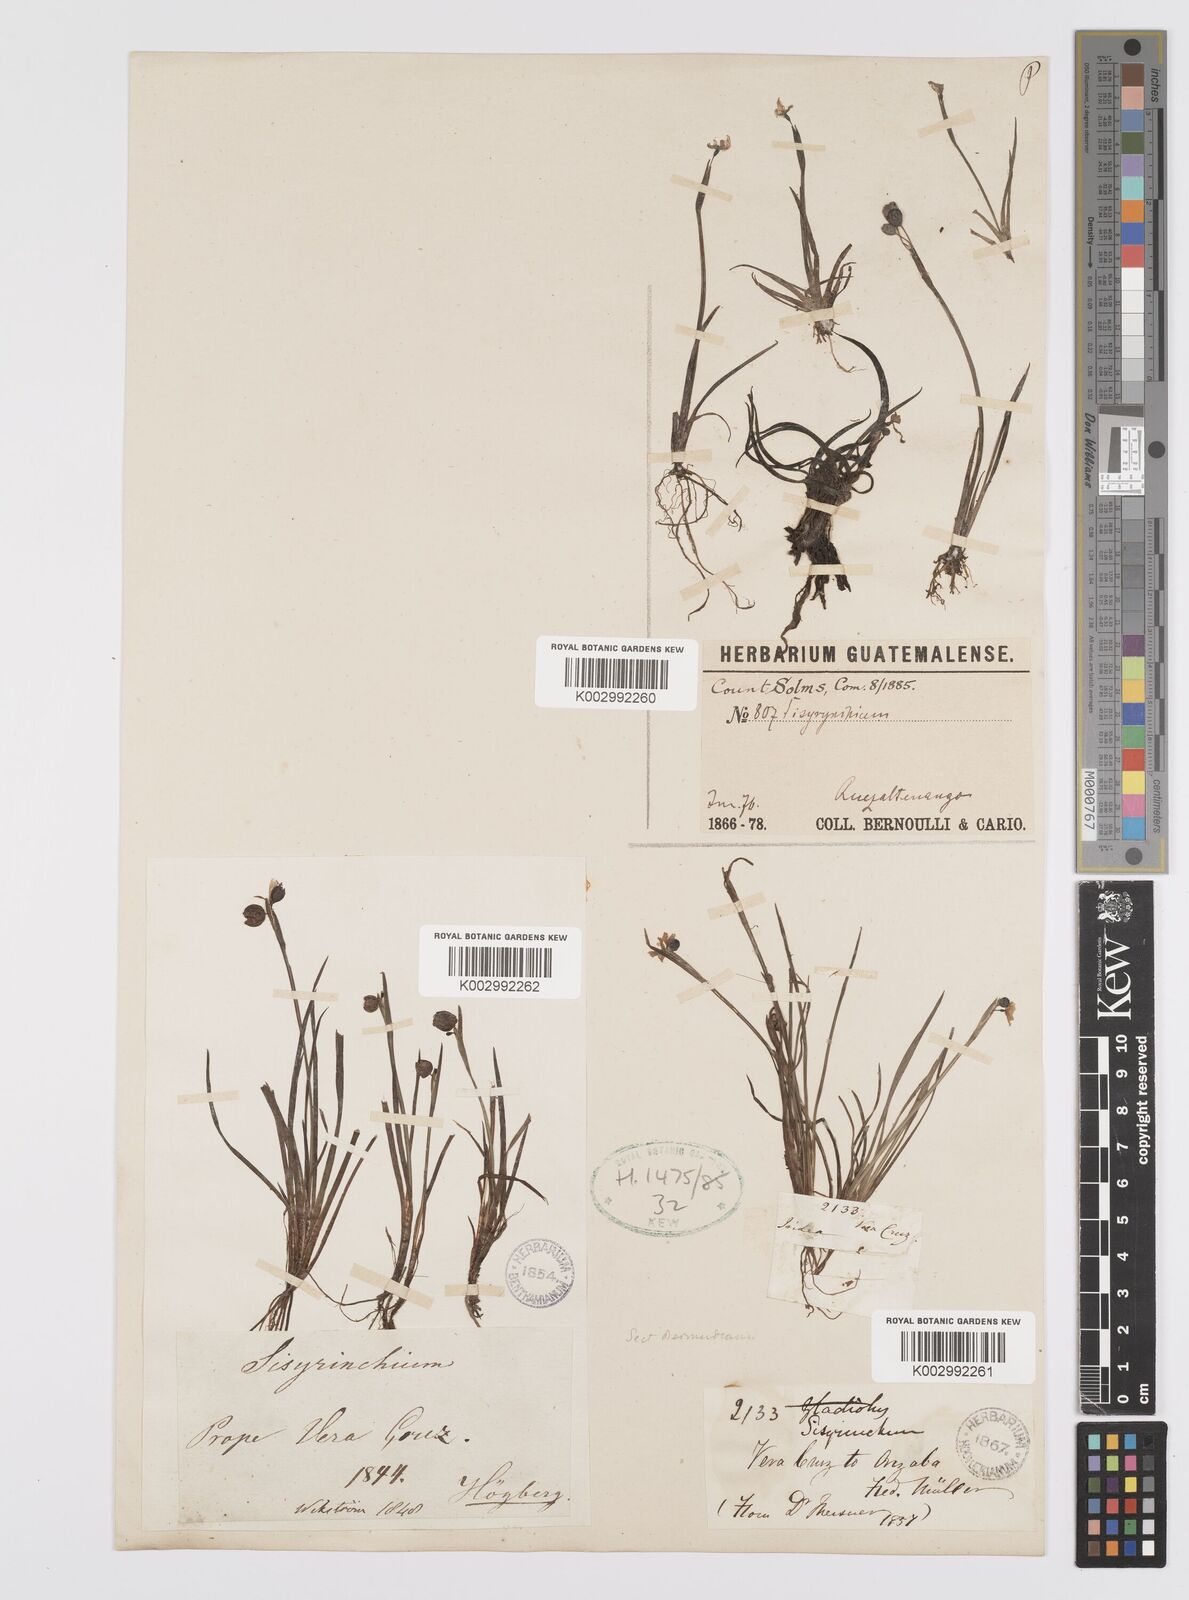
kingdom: Plantae
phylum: Tracheophyta
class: Liliopsida
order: Asparagales
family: Iridaceae
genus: Sisyrinchium
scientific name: Sisyrinchium
